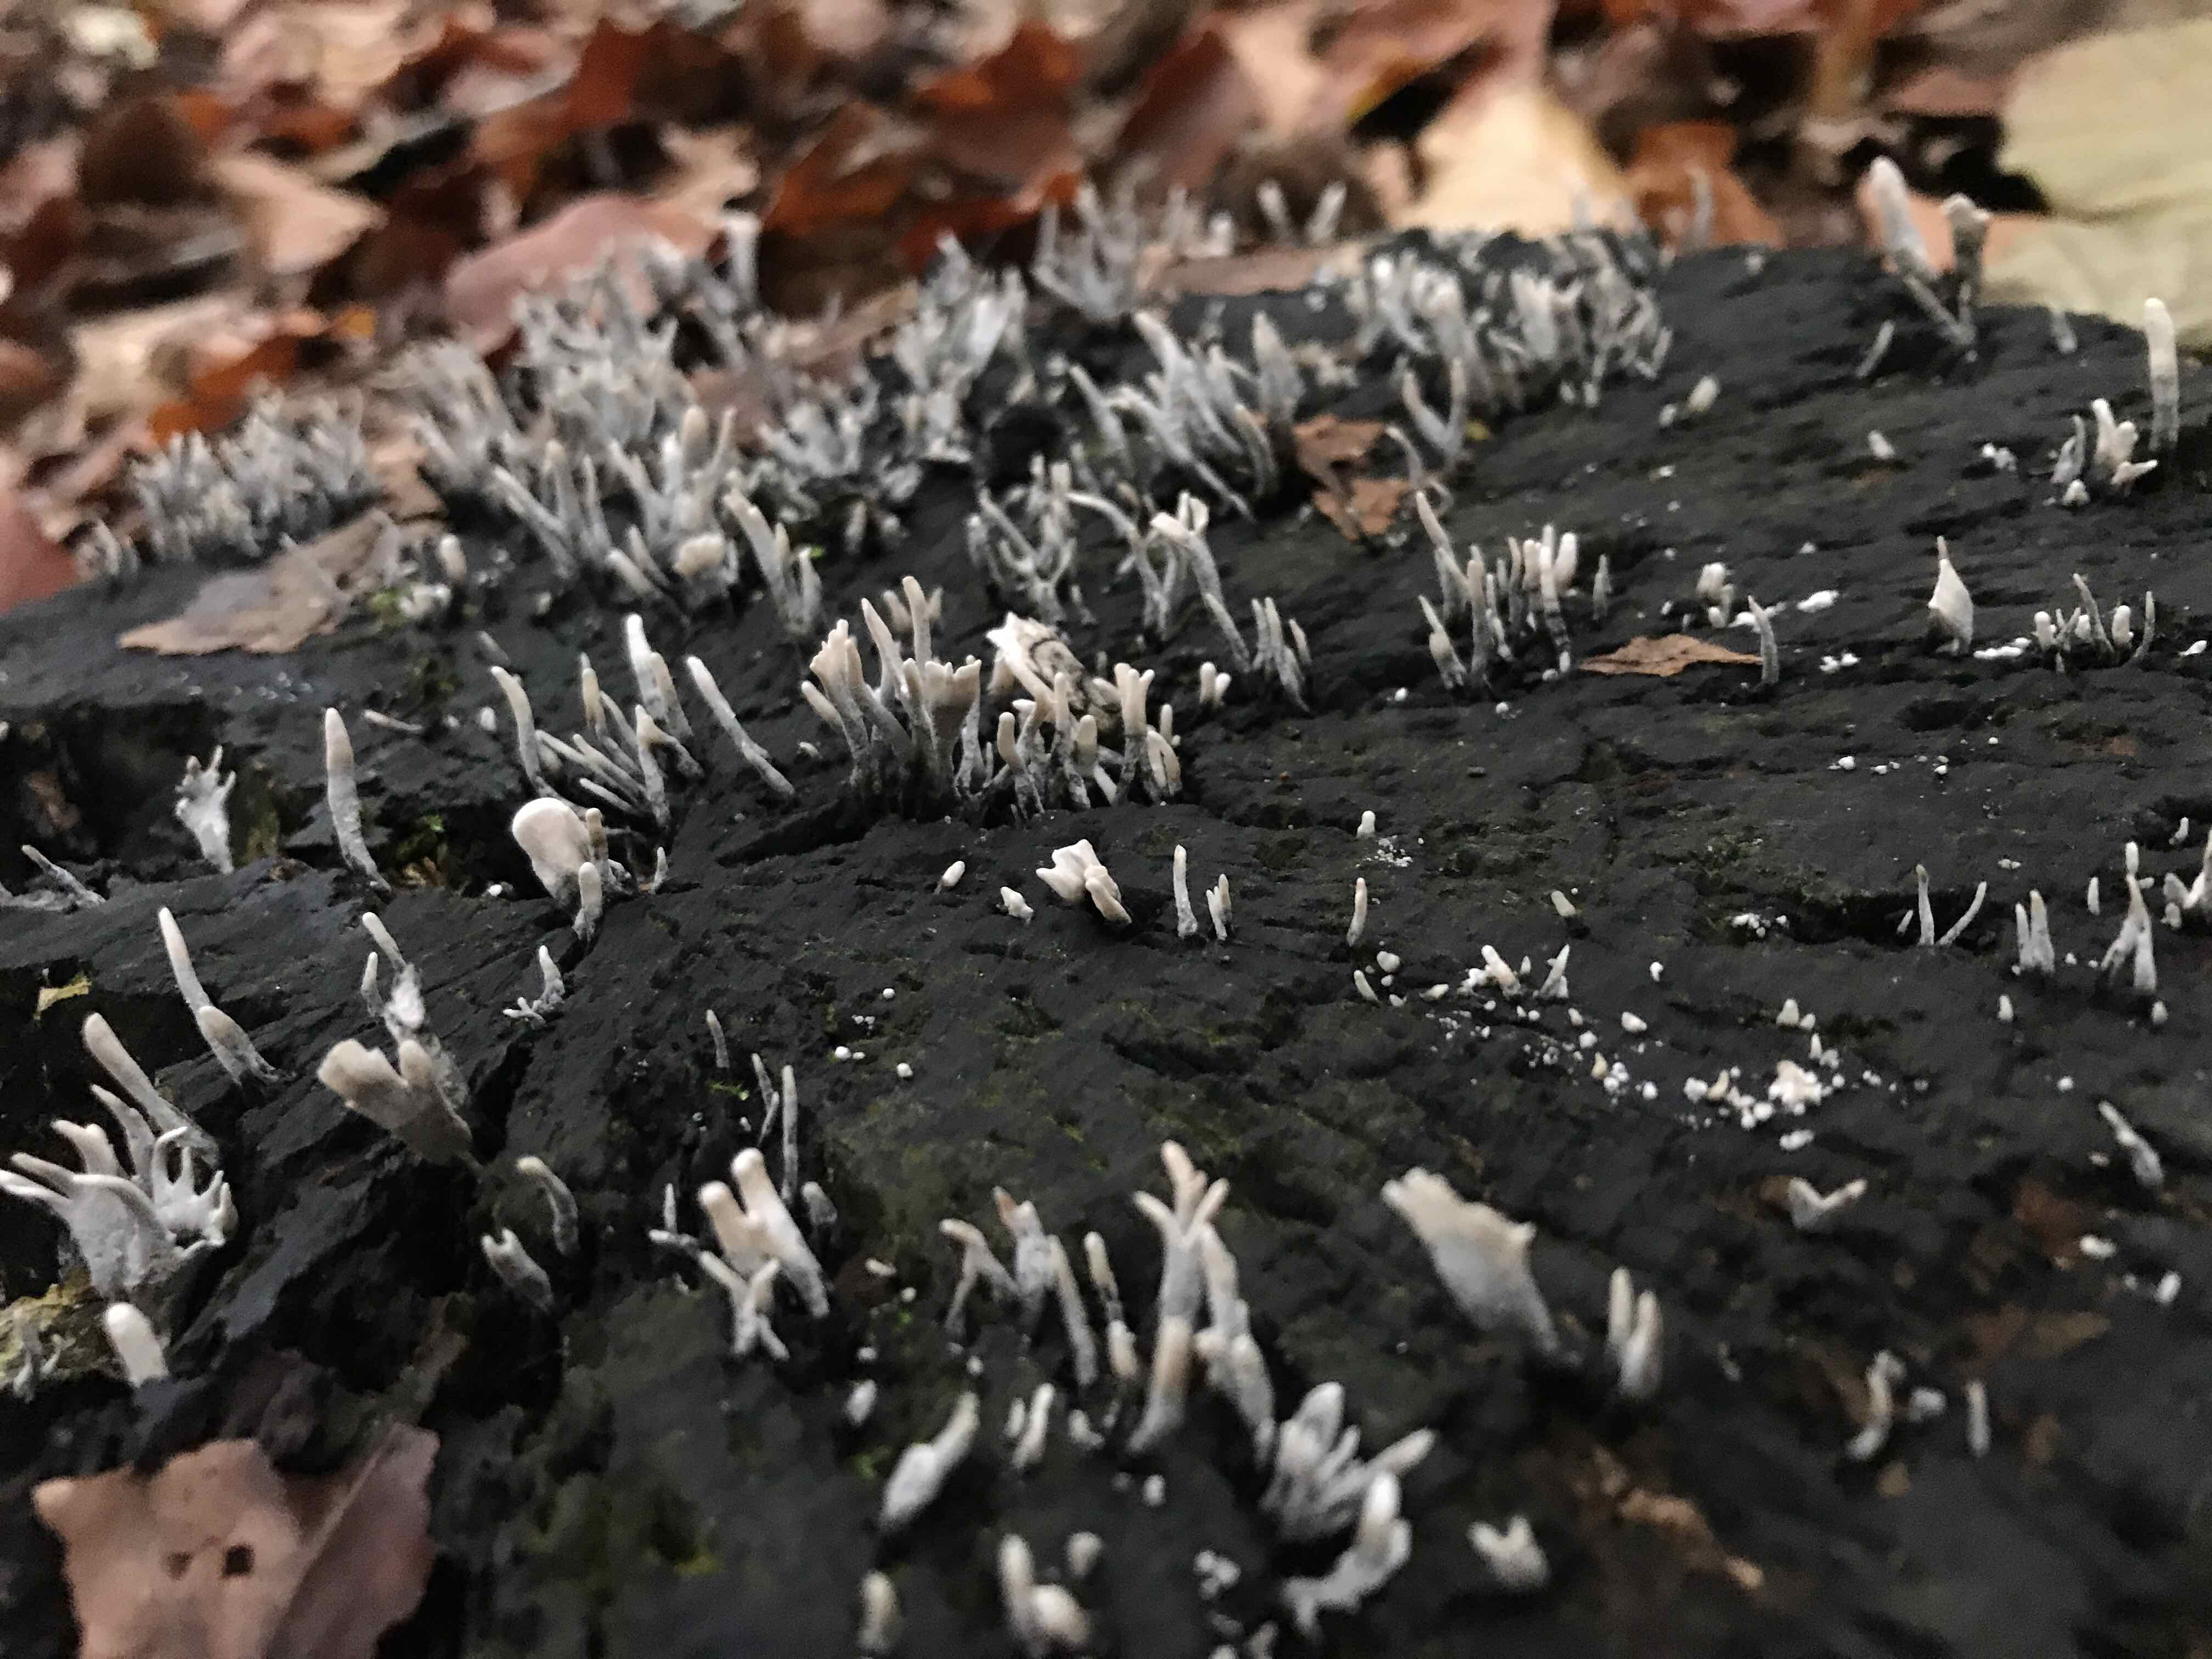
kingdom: Fungi
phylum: Ascomycota
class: Sordariomycetes
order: Xylariales
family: Xylariaceae
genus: Xylaria
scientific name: Xylaria hypoxylon
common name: grenet stødsvamp
